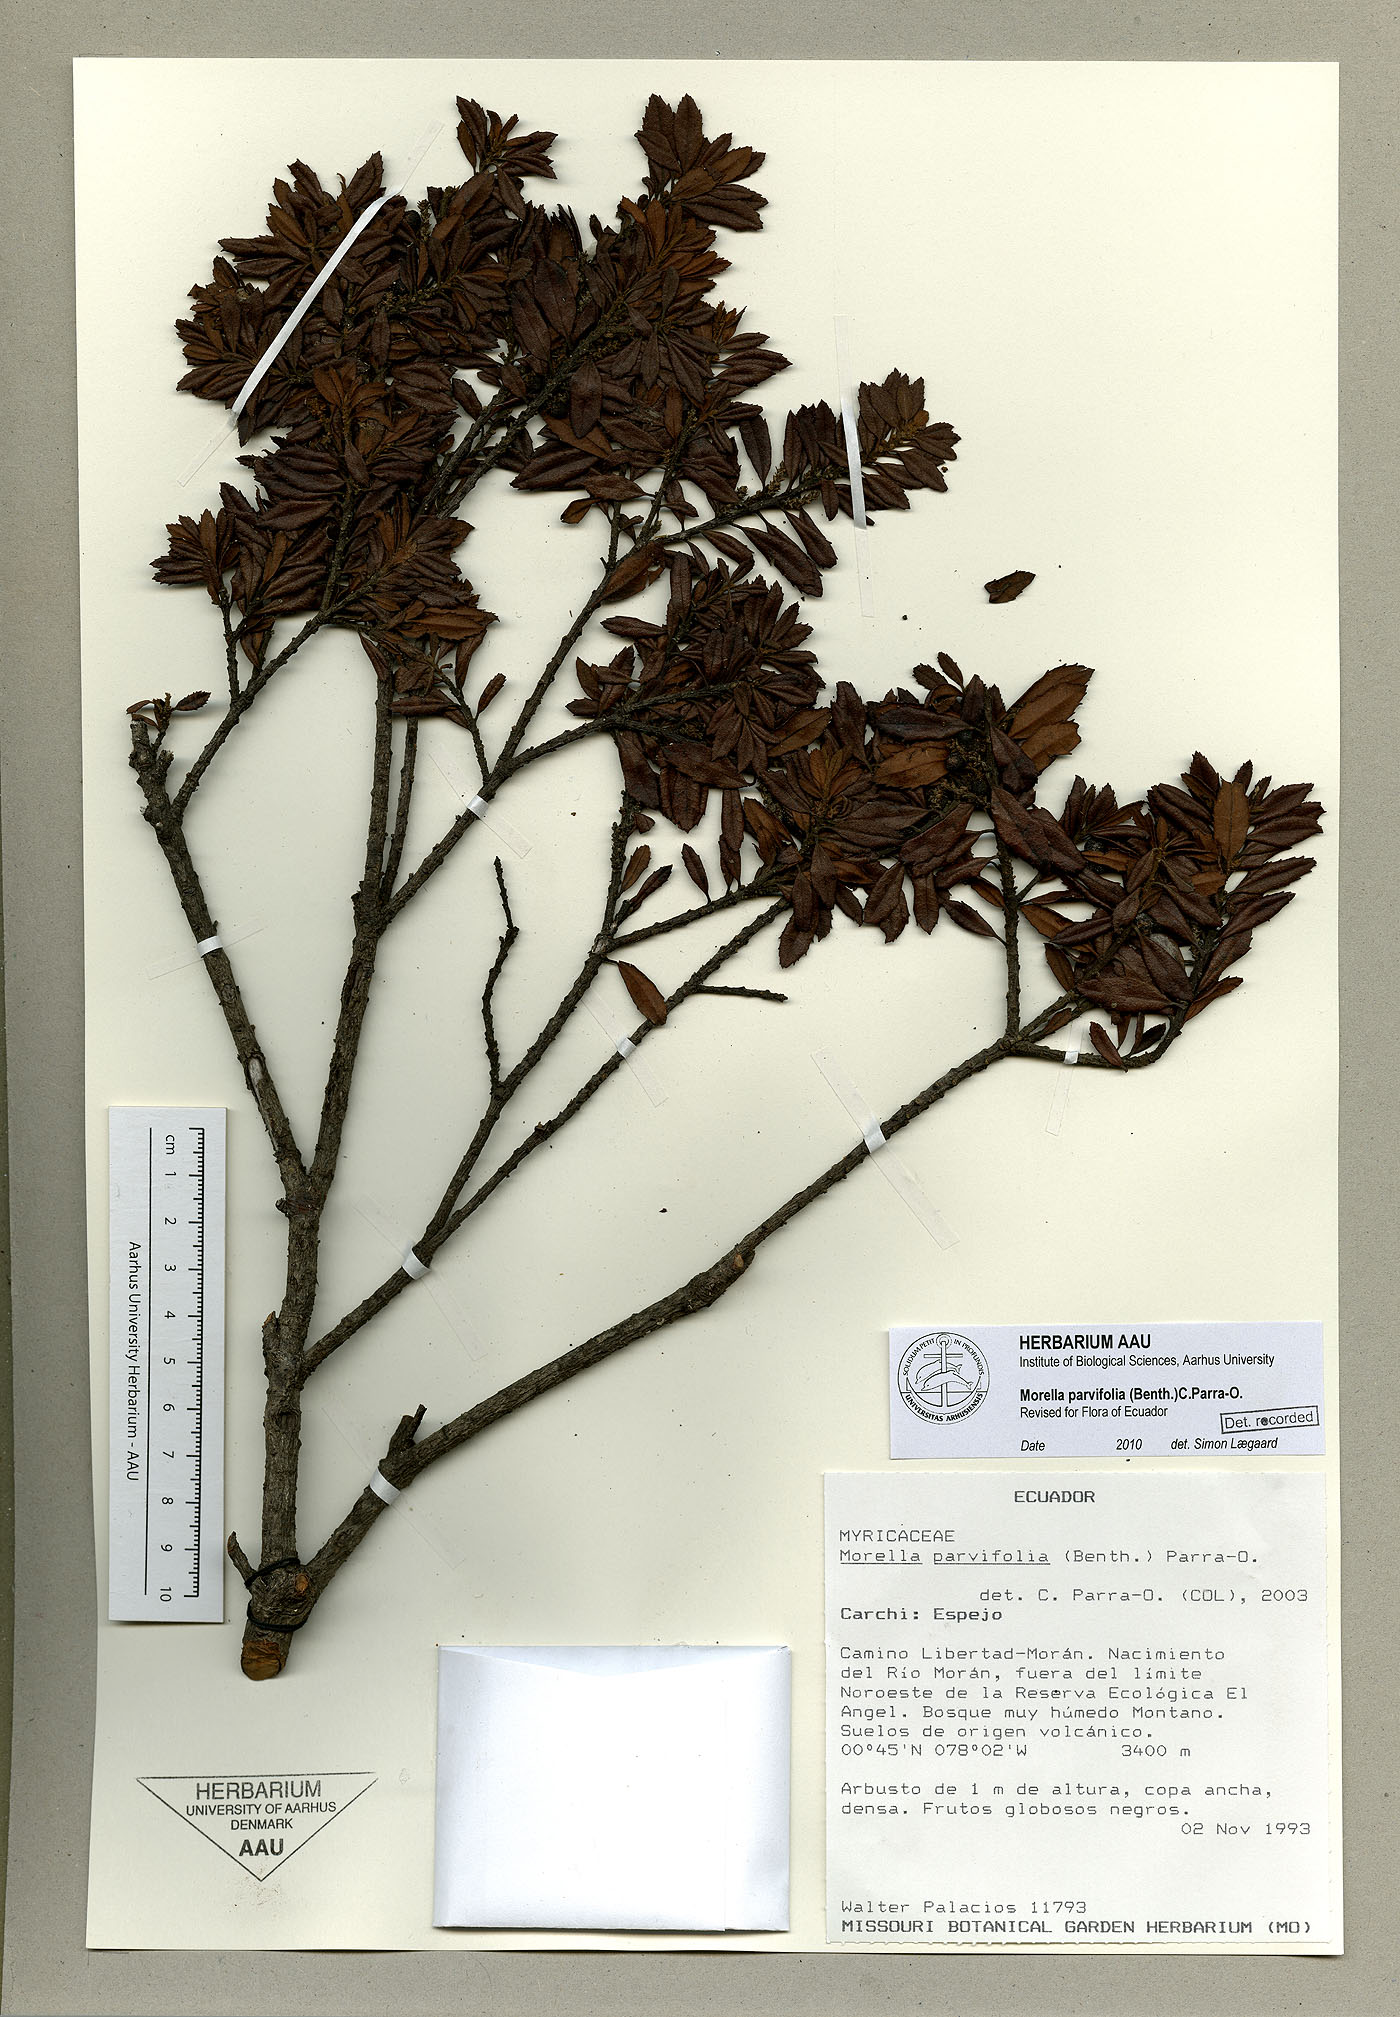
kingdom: Plantae
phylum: Tracheophyta
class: Magnoliopsida
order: Fagales
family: Myricaceae
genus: Morella
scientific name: Morella parvifolia
